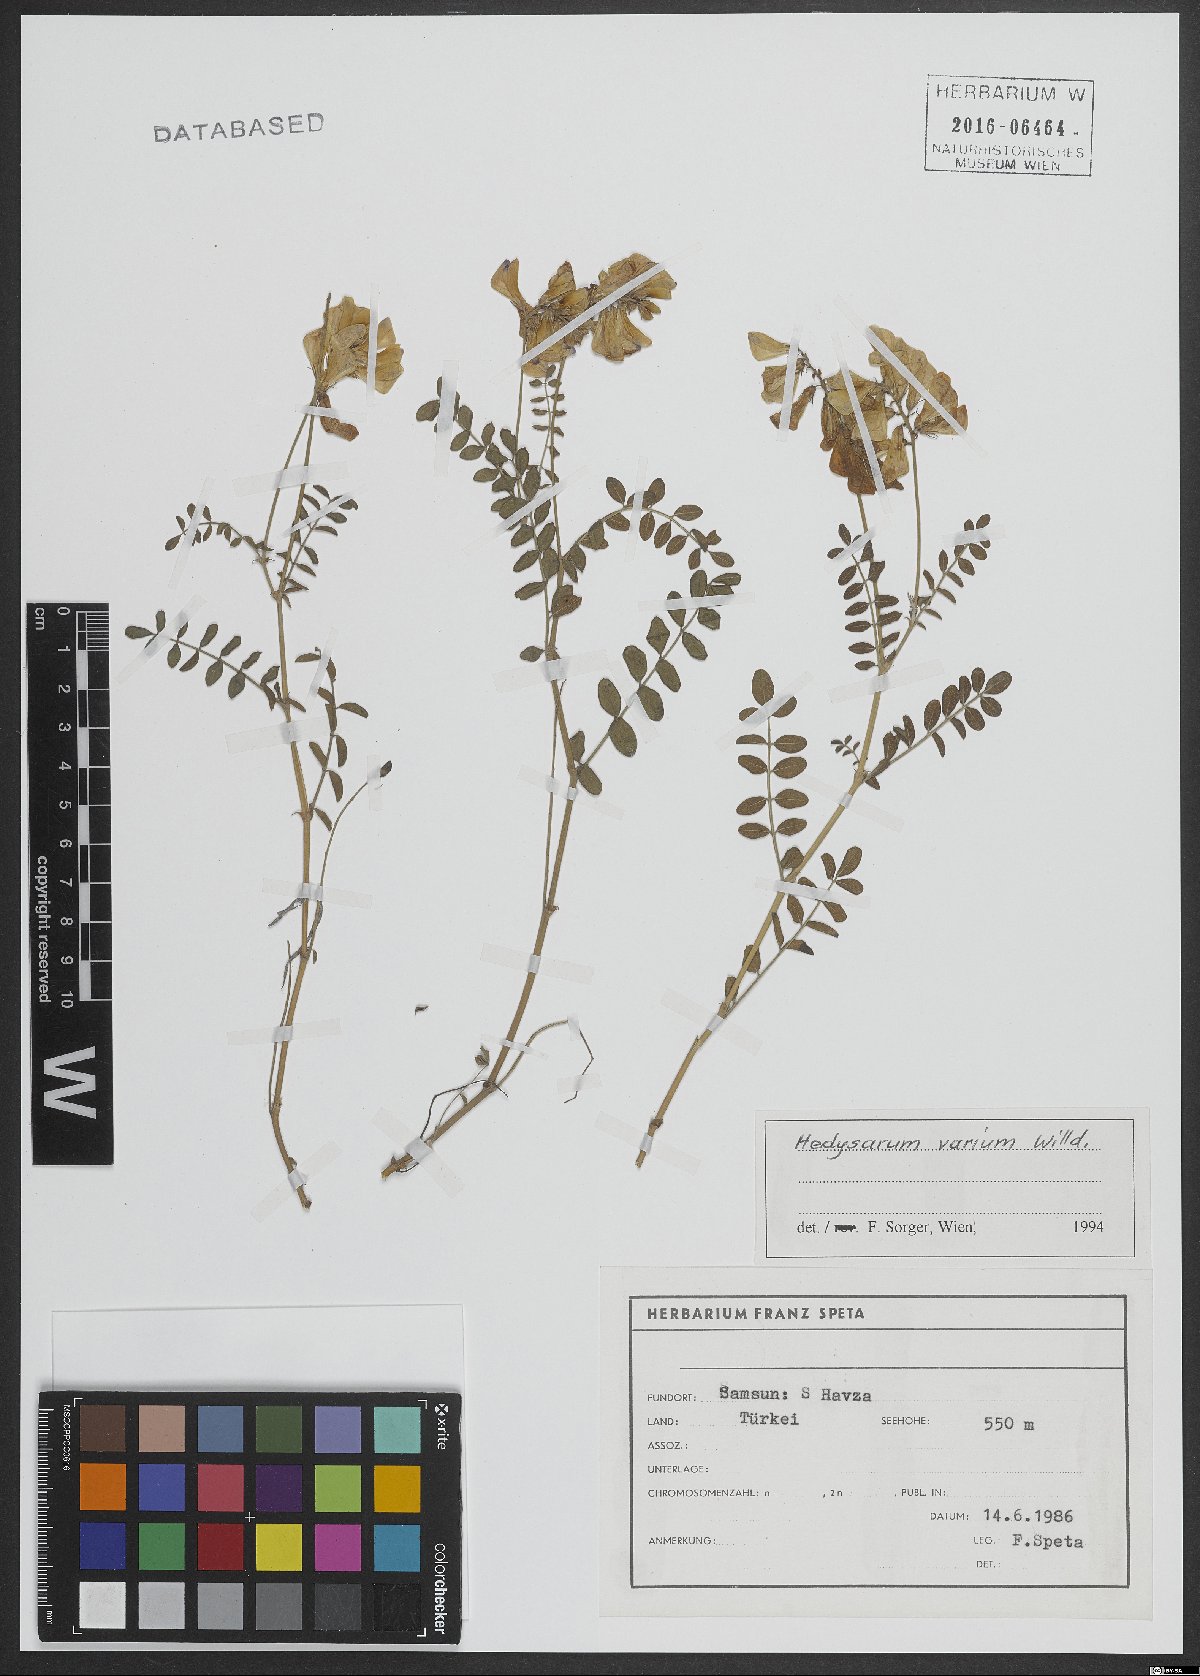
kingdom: Plantae
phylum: Tracheophyta
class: Magnoliopsida
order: Fabales
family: Fabaceae
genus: Hedysarum
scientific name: Hedysarum varium
